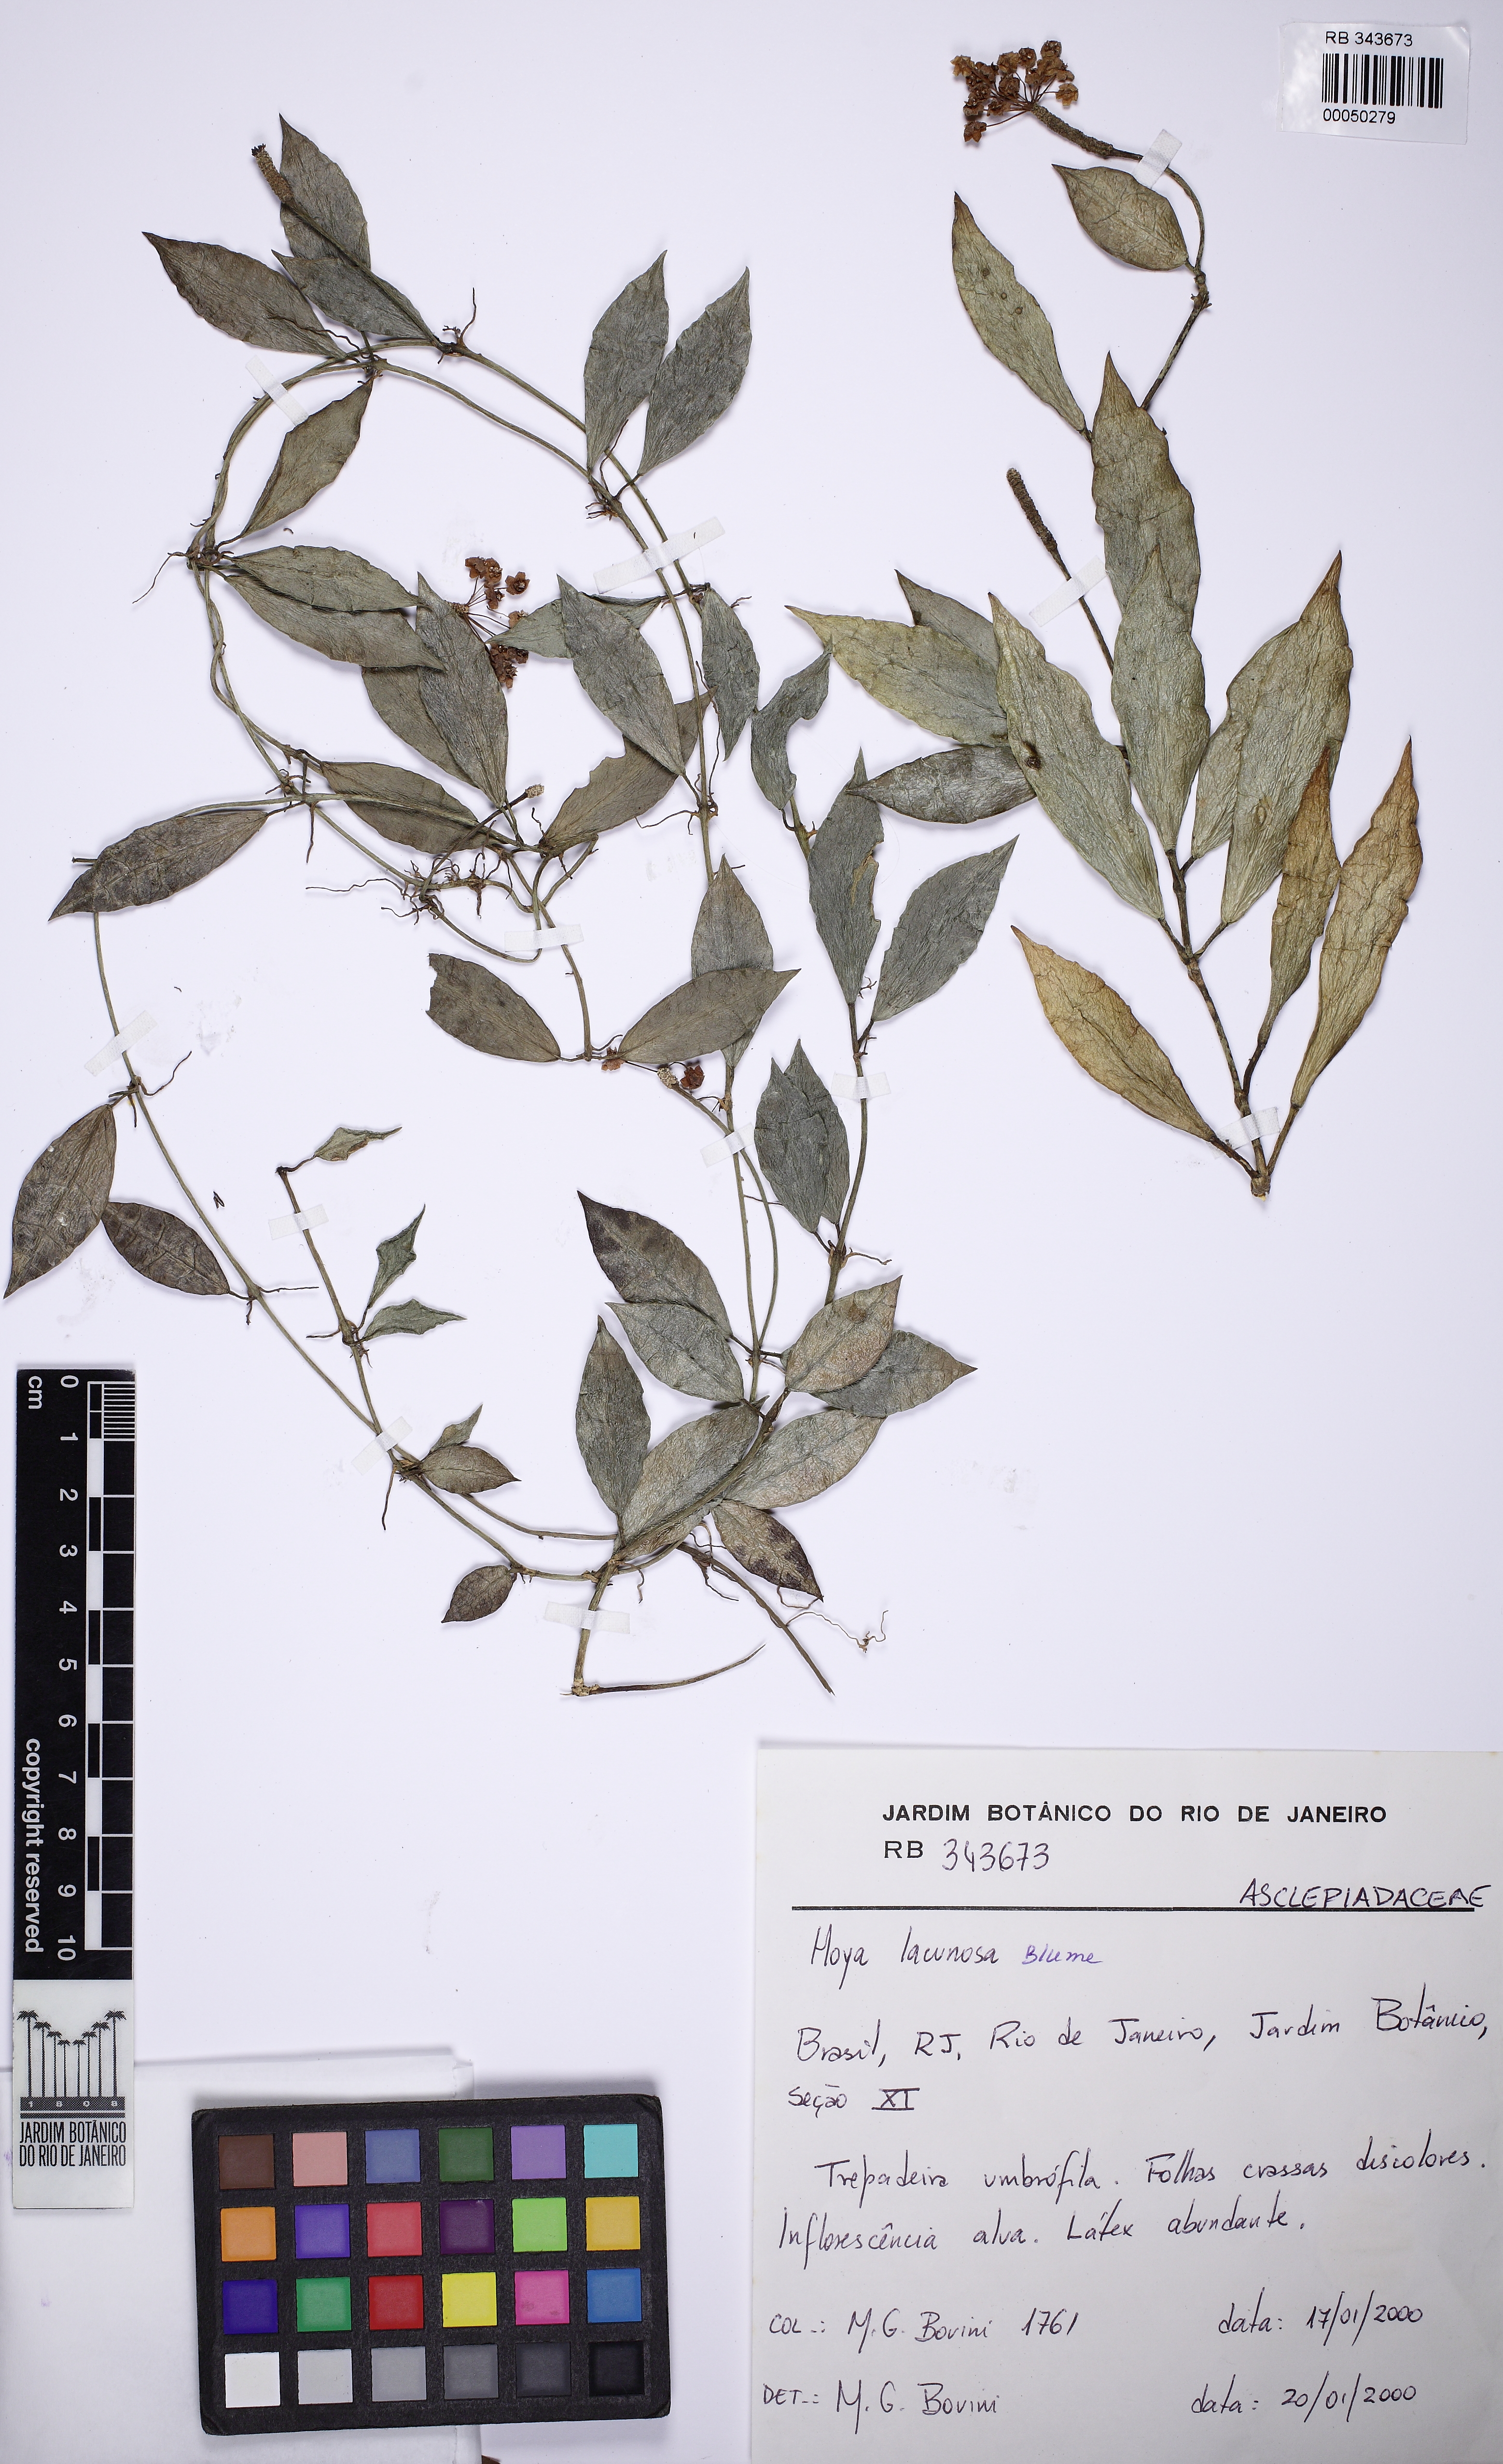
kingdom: Plantae
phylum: Tracheophyta
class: Magnoliopsida
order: Gentianales
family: Apocynaceae
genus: Hoya
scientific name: Hoya lacunosa
